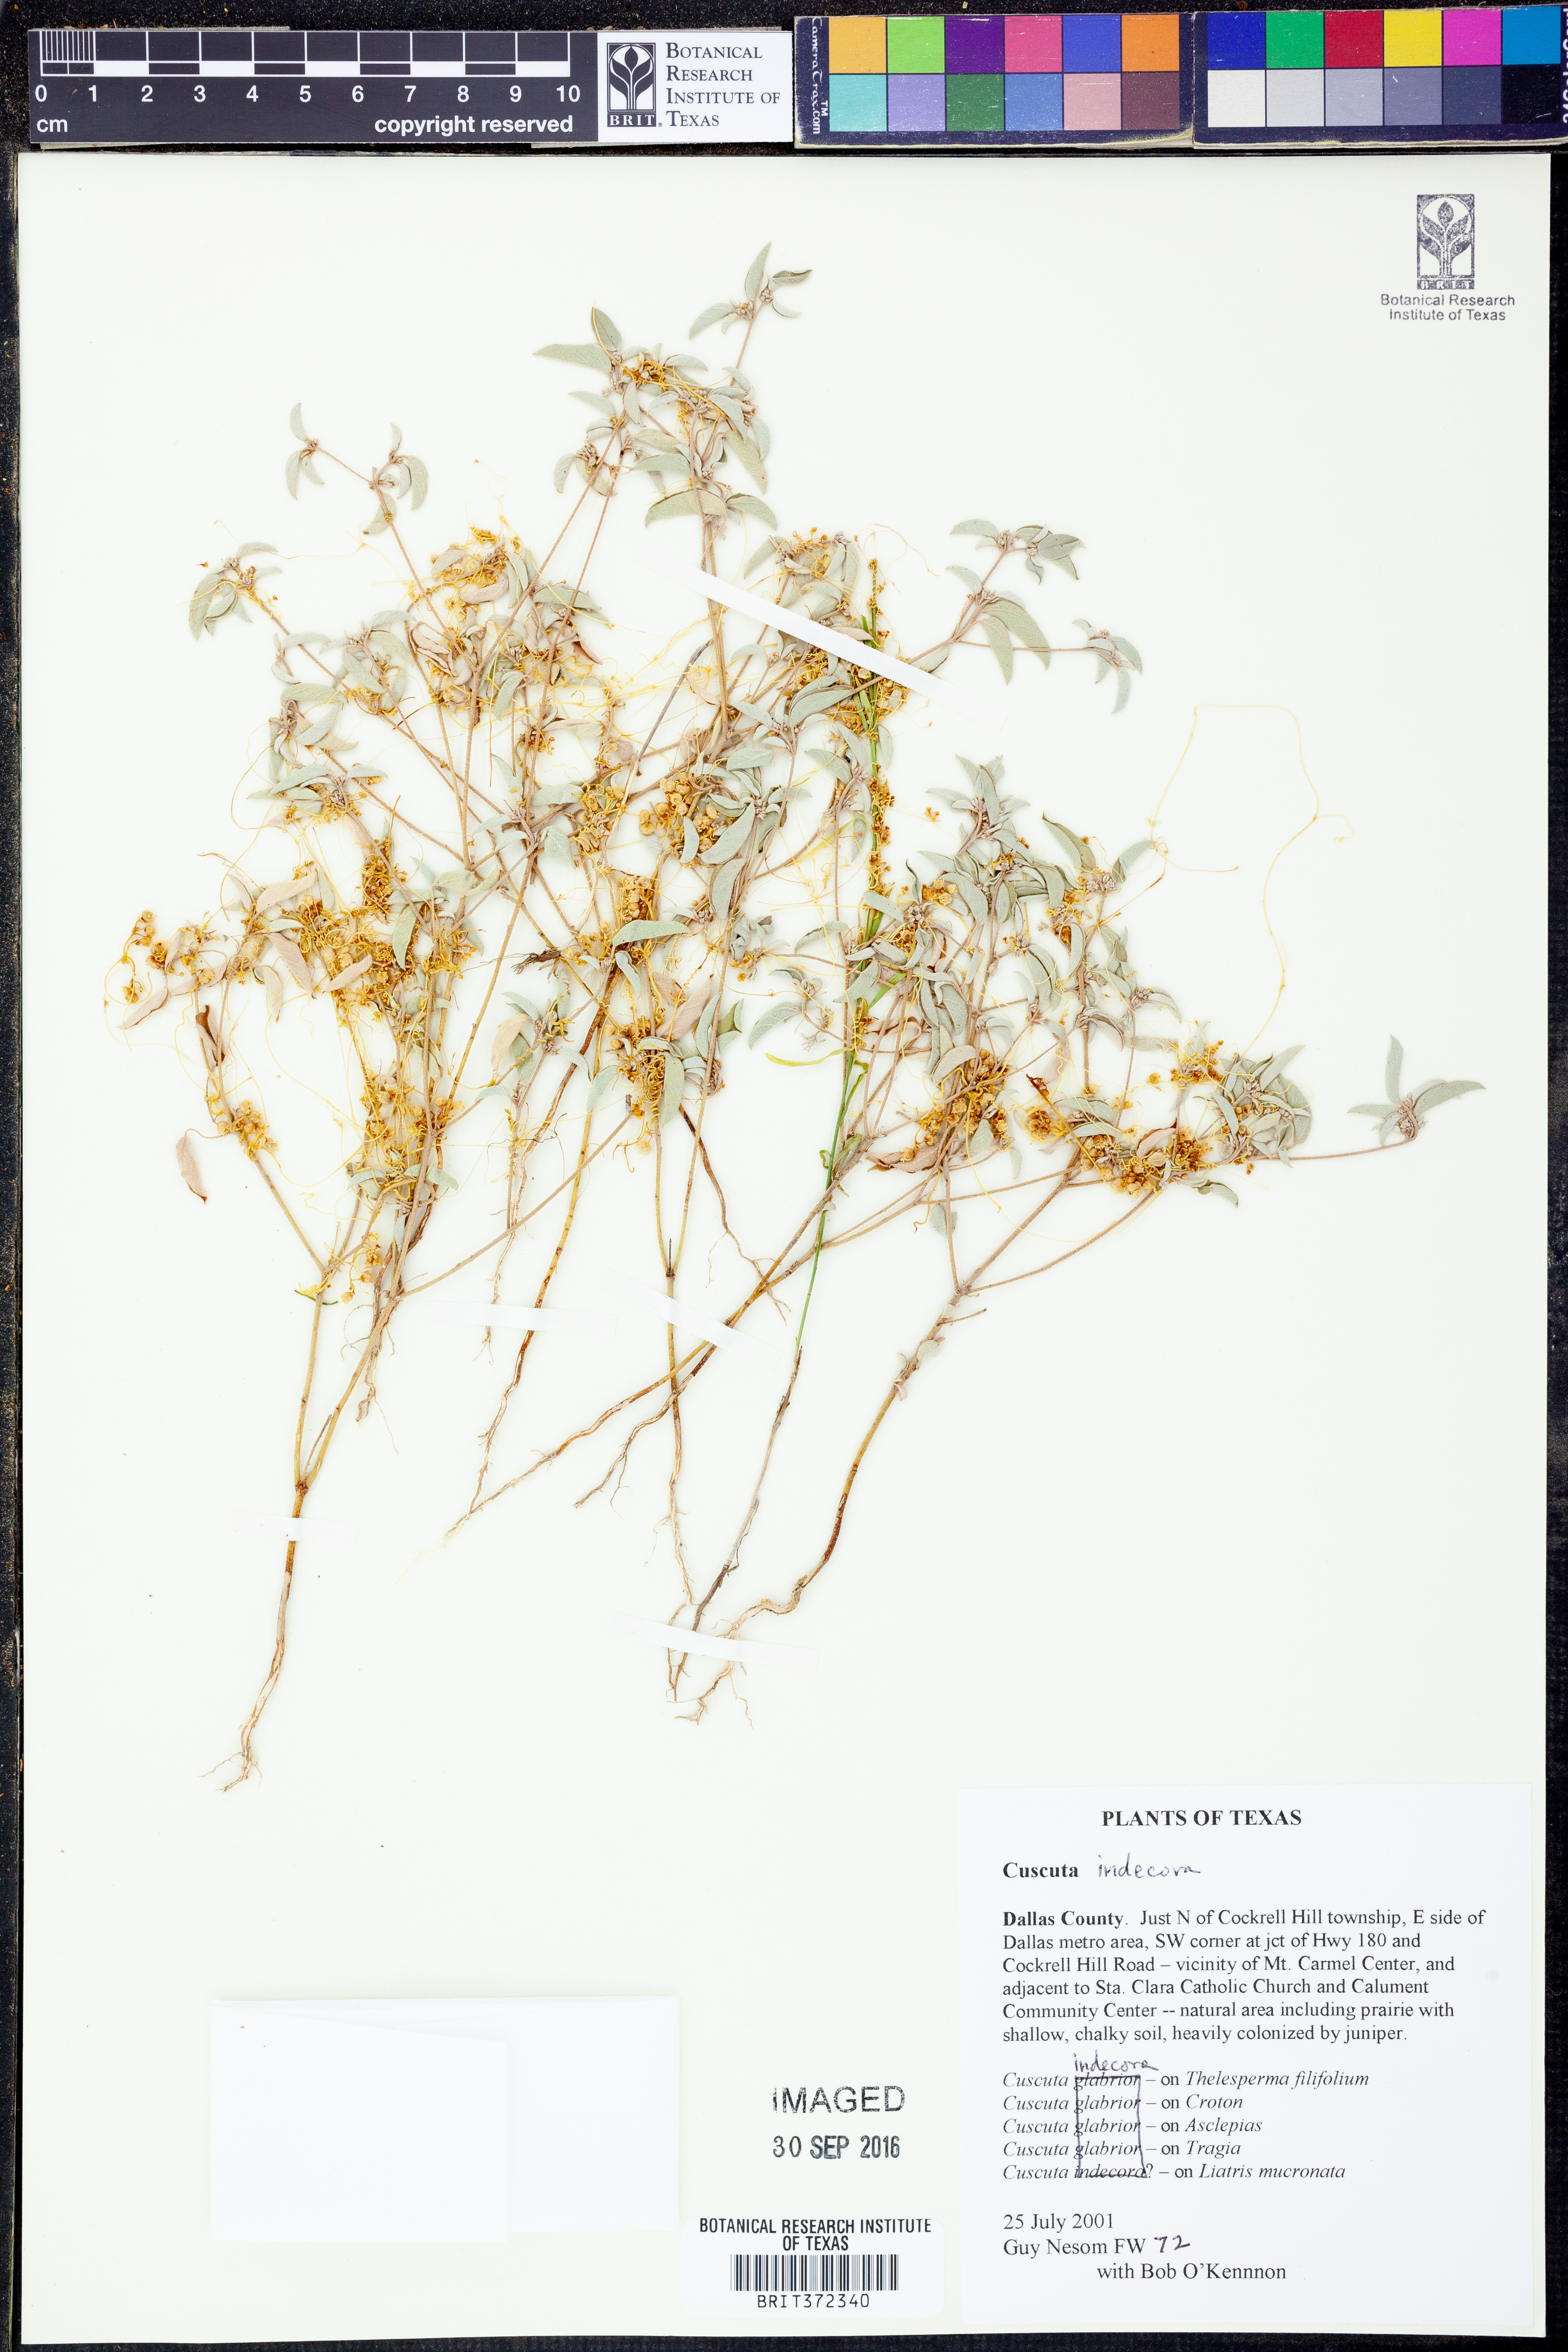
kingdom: Plantae
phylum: Tracheophyta
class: Magnoliopsida
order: Solanales
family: Convolvulaceae
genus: Cuscuta
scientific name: Cuscuta indecora
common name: Large-seed dodder
